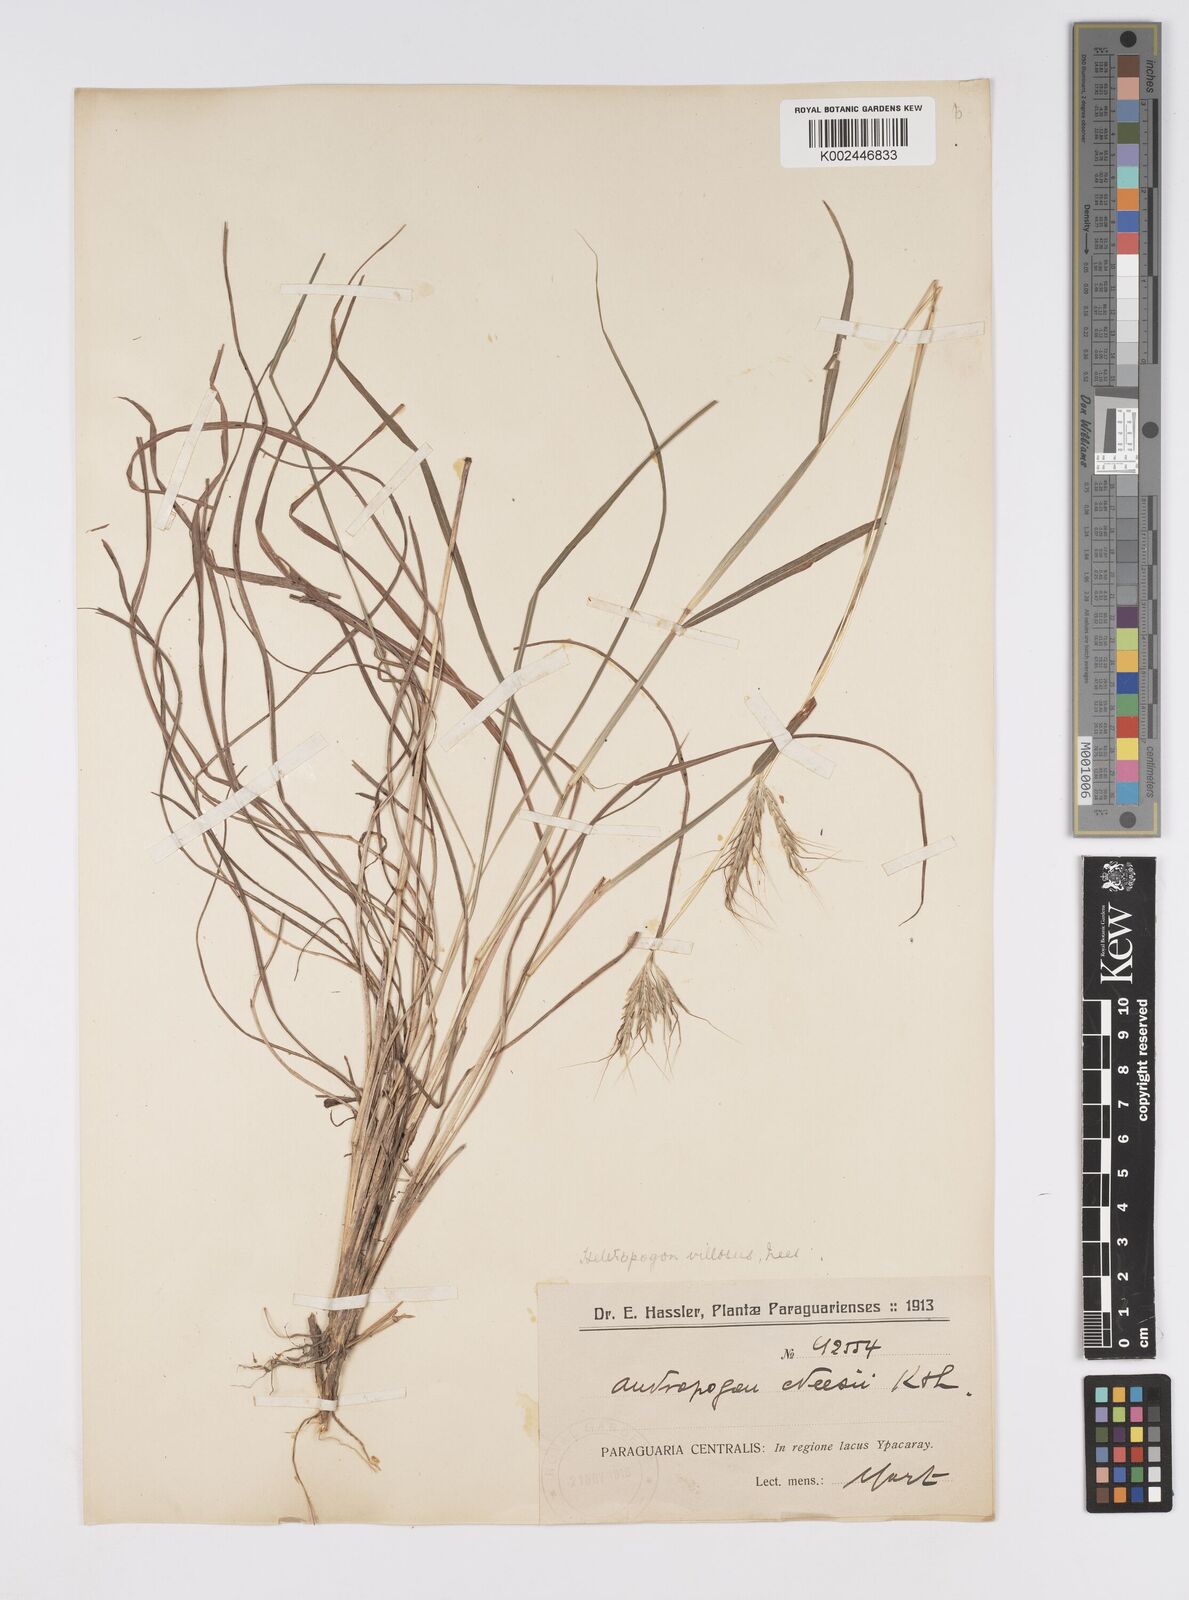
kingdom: Plantae
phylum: Tracheophyta
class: Liliopsida
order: Poales
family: Poaceae
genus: Agenium
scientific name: Agenium villosum
